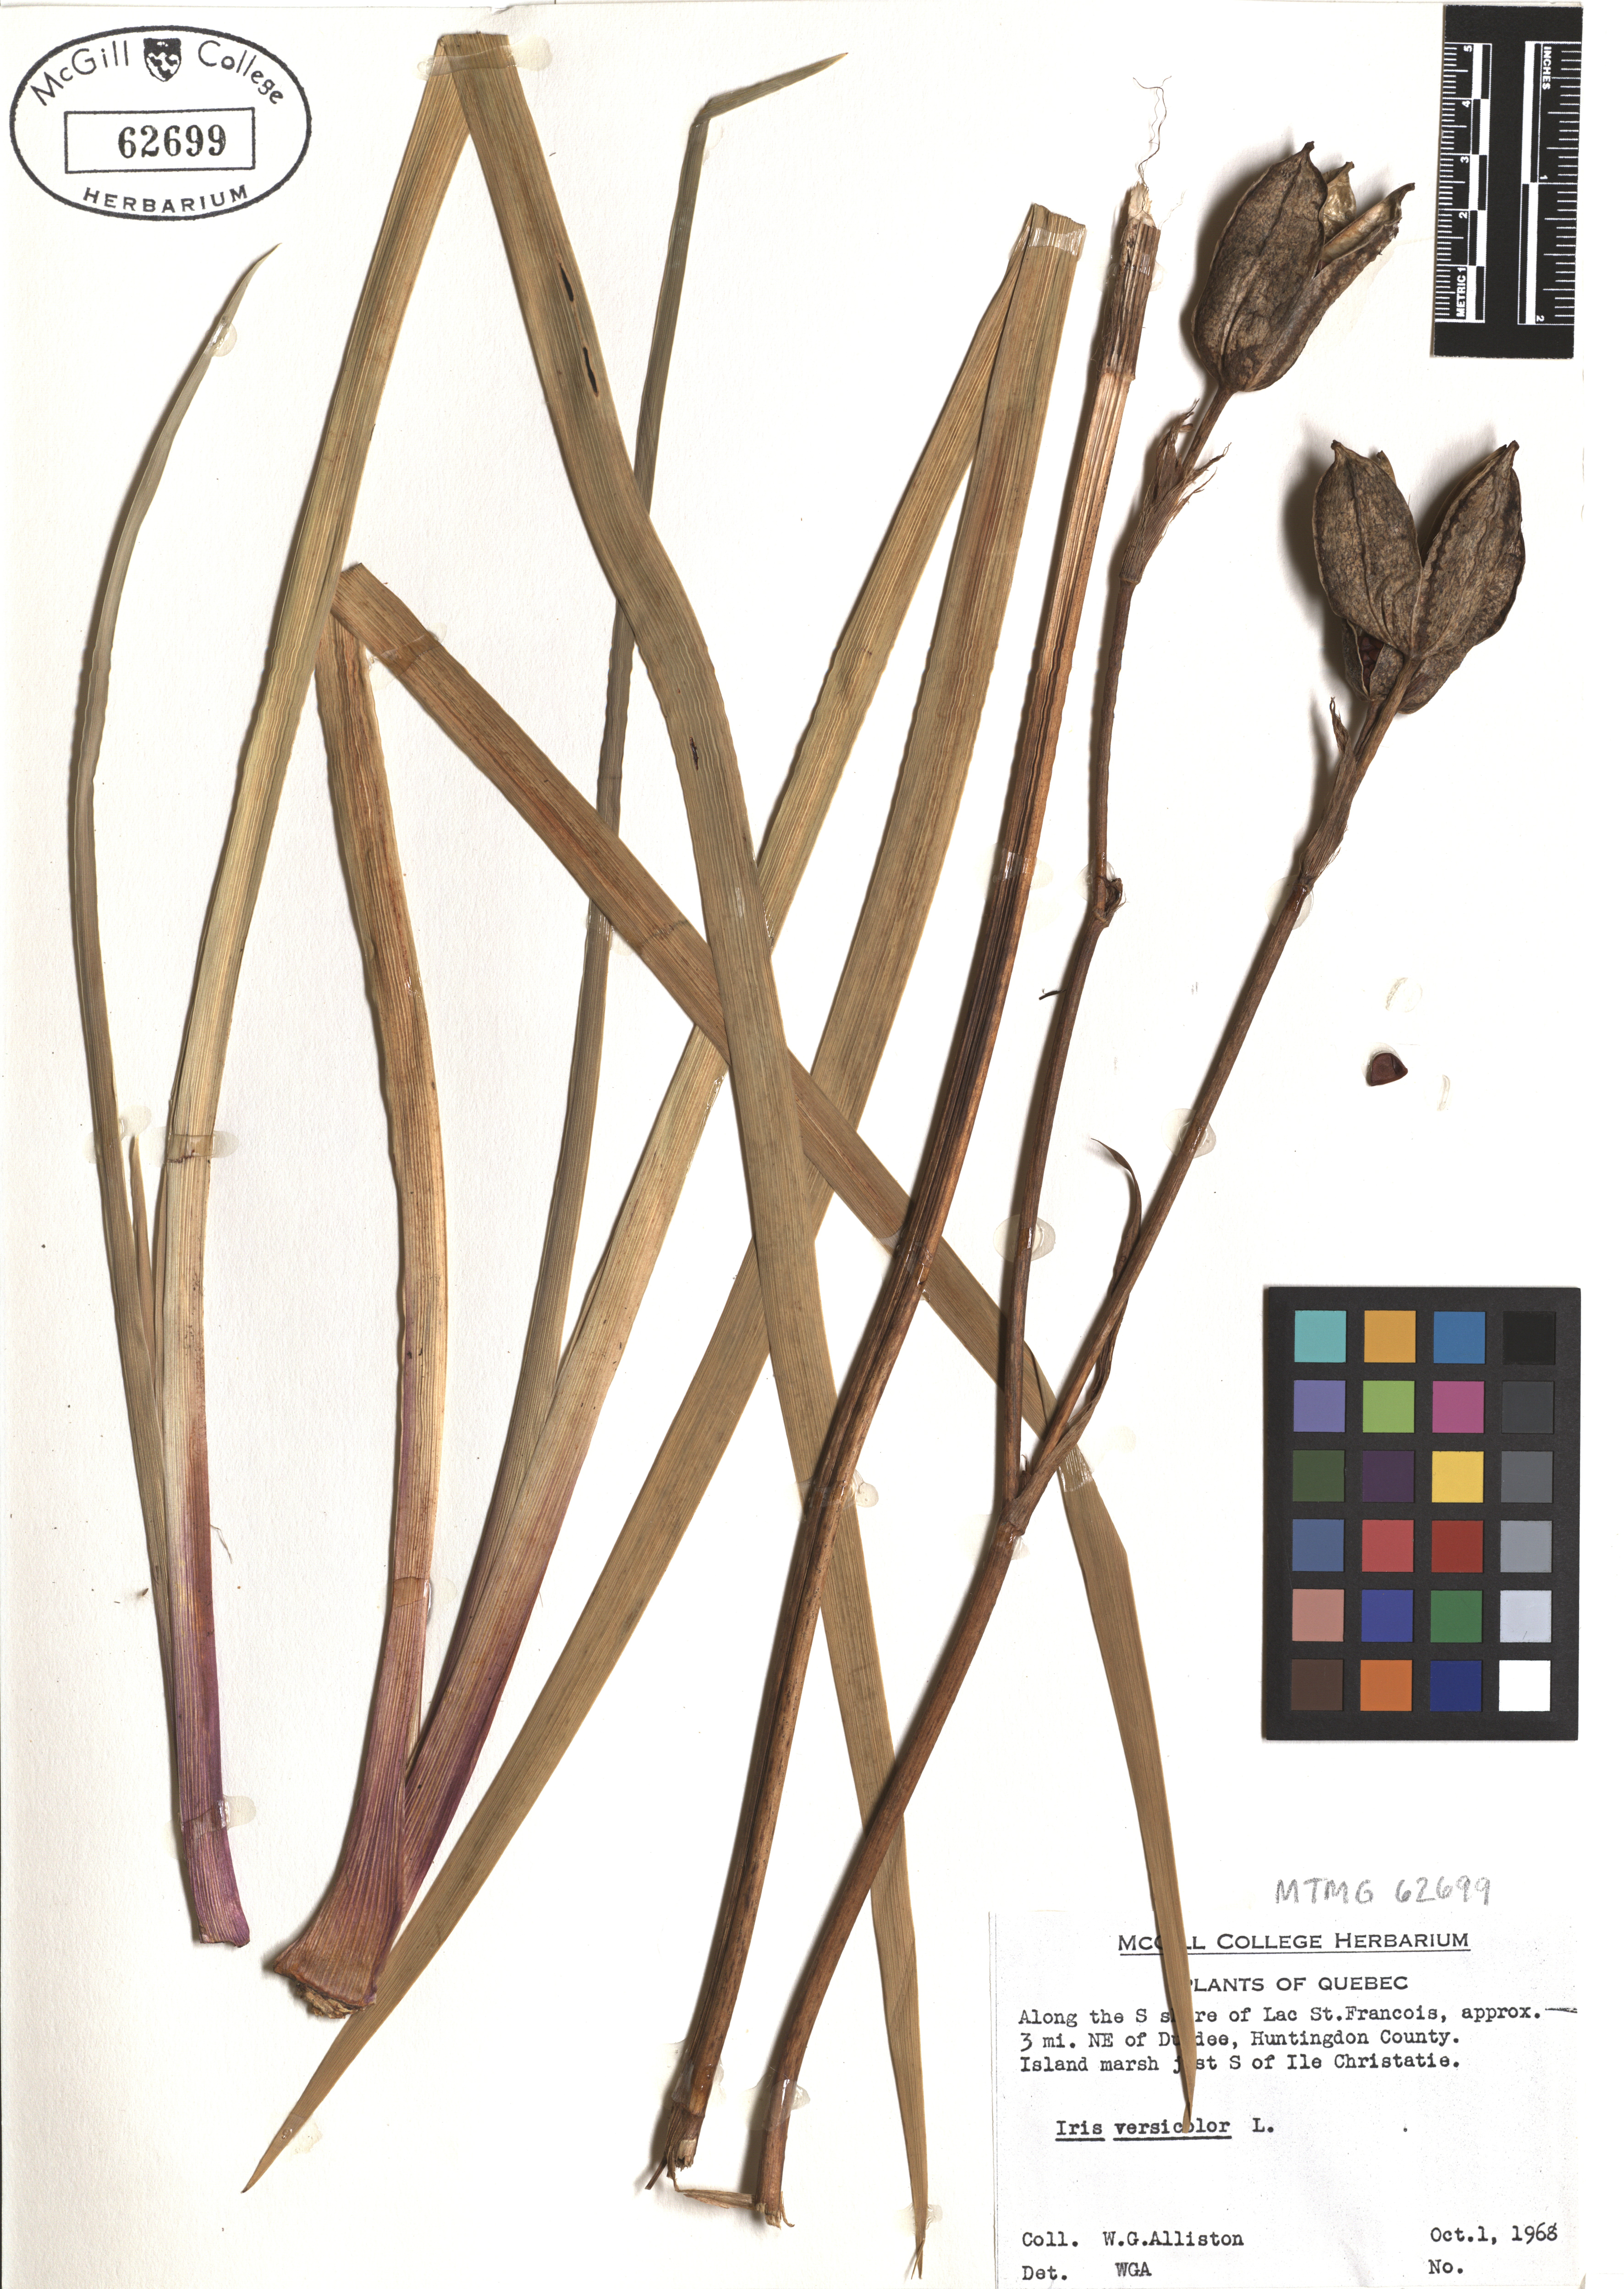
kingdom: Plantae
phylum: Tracheophyta
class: Liliopsida
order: Asparagales
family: Iridaceae
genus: Iris
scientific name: Iris versicolor
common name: Purple iris
